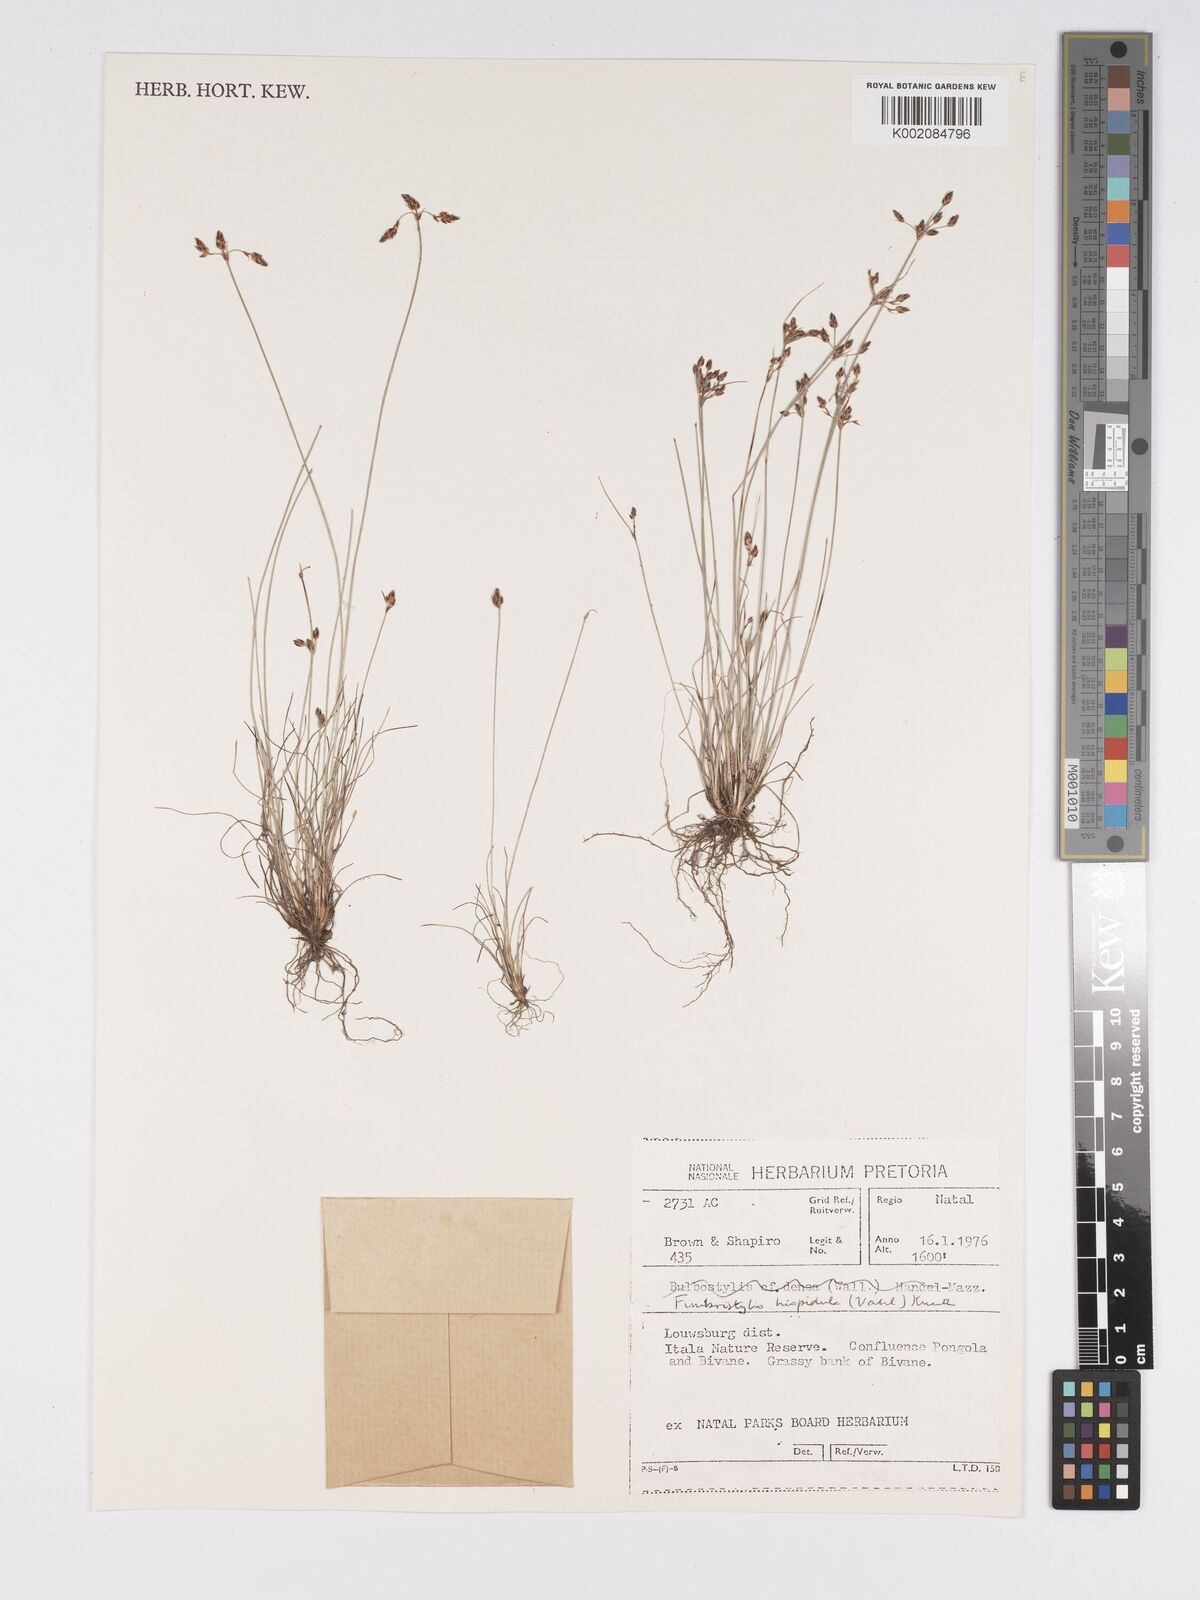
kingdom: Plantae
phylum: Tracheophyta
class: Liliopsida
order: Poales
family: Cyperaceae
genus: Bulbostylis
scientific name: Bulbostylis
